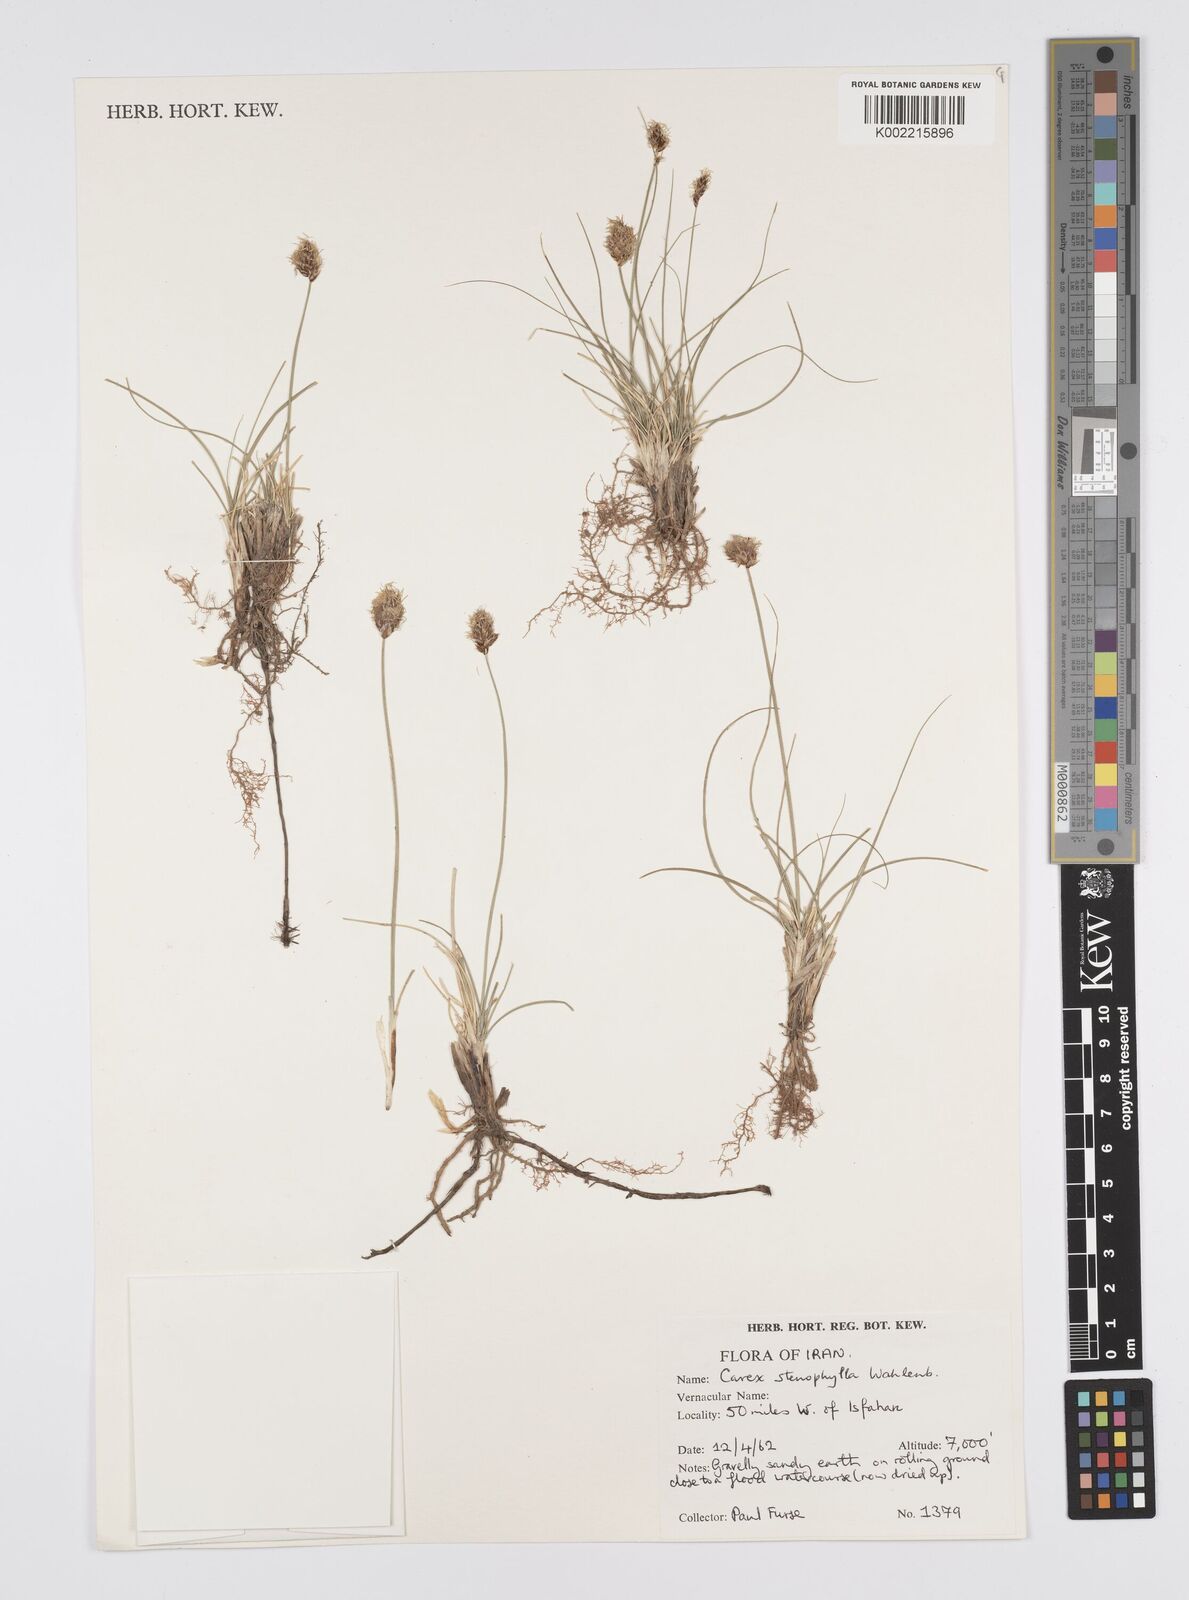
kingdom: Plantae
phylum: Tracheophyta
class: Liliopsida
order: Poales
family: Cyperaceae
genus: Carex
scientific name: Carex stenophylla
